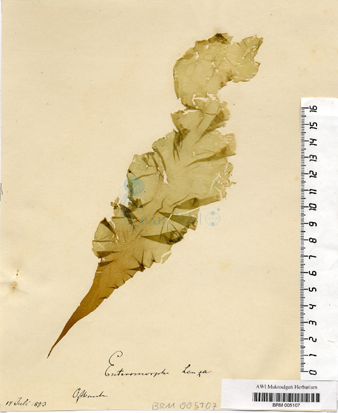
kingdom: Plantae
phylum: Chlorophyta
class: Ulvophyceae
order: Ulvales
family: Ulvaceae
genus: Ulva
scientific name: Ulva linza
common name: Green string lettuce
